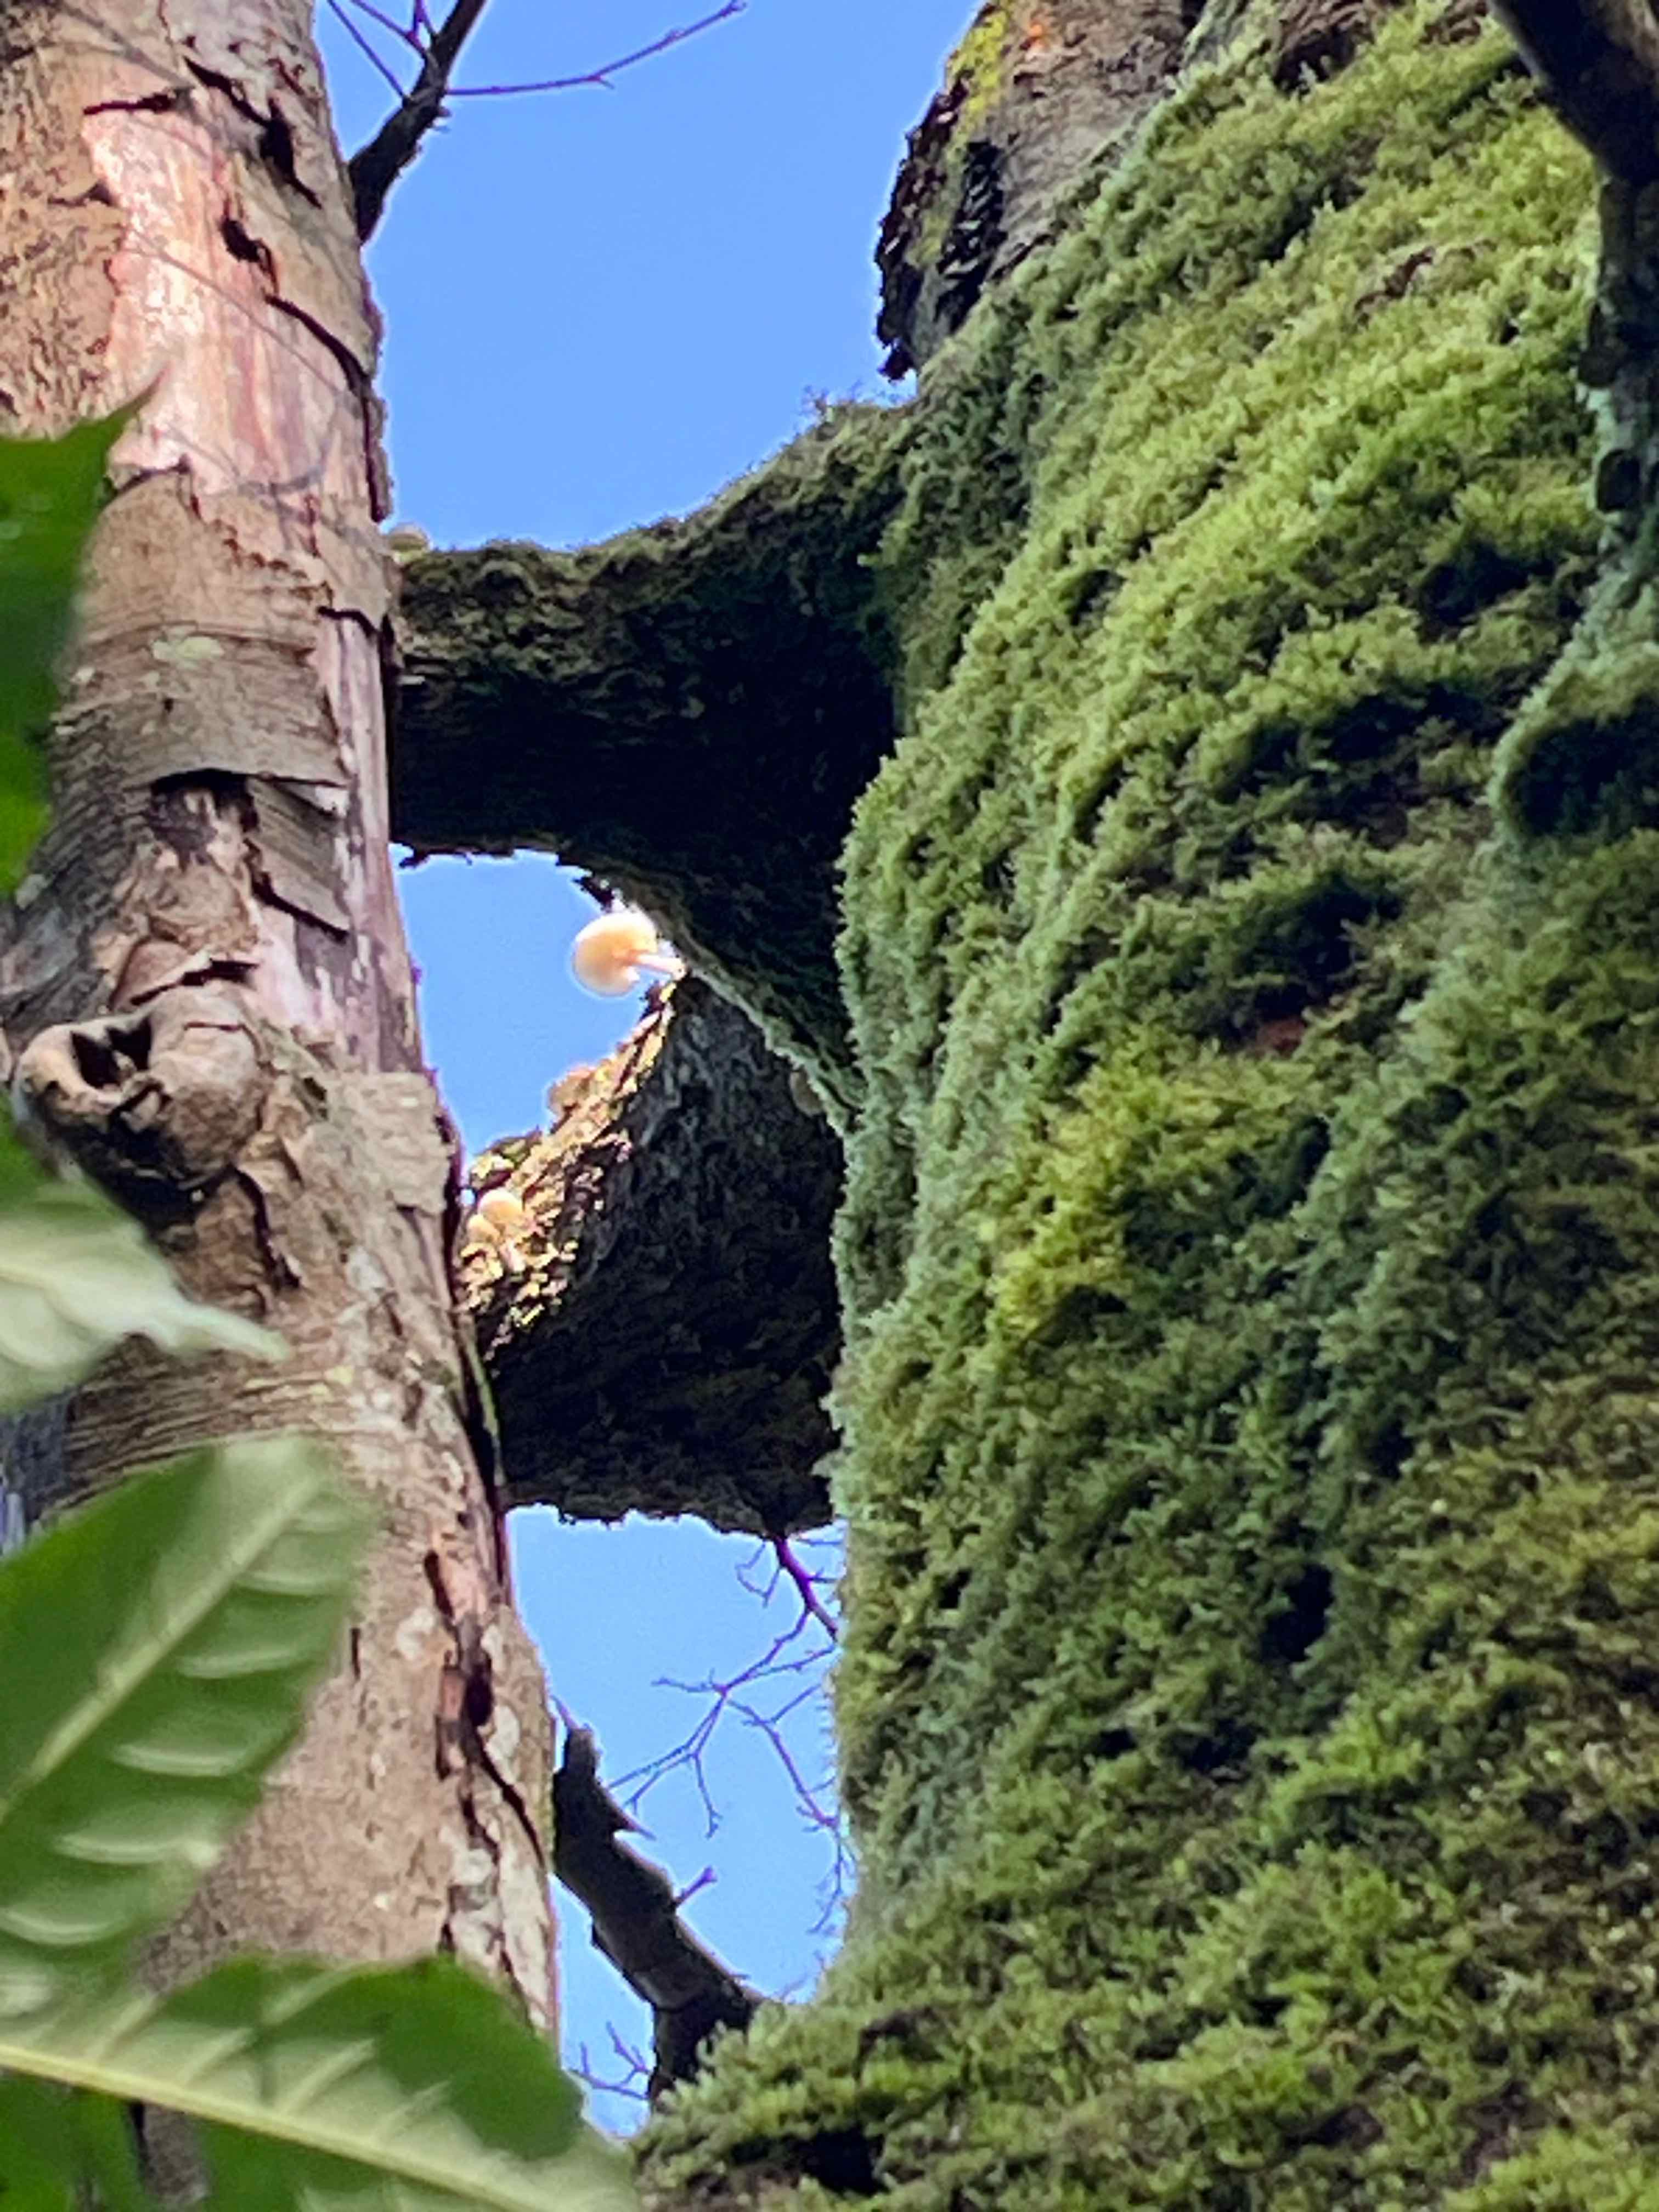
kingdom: Fungi
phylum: Basidiomycota
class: Agaricomycetes
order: Agaricales
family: Physalacriaceae
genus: Mucidula
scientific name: Mucidula mucida
